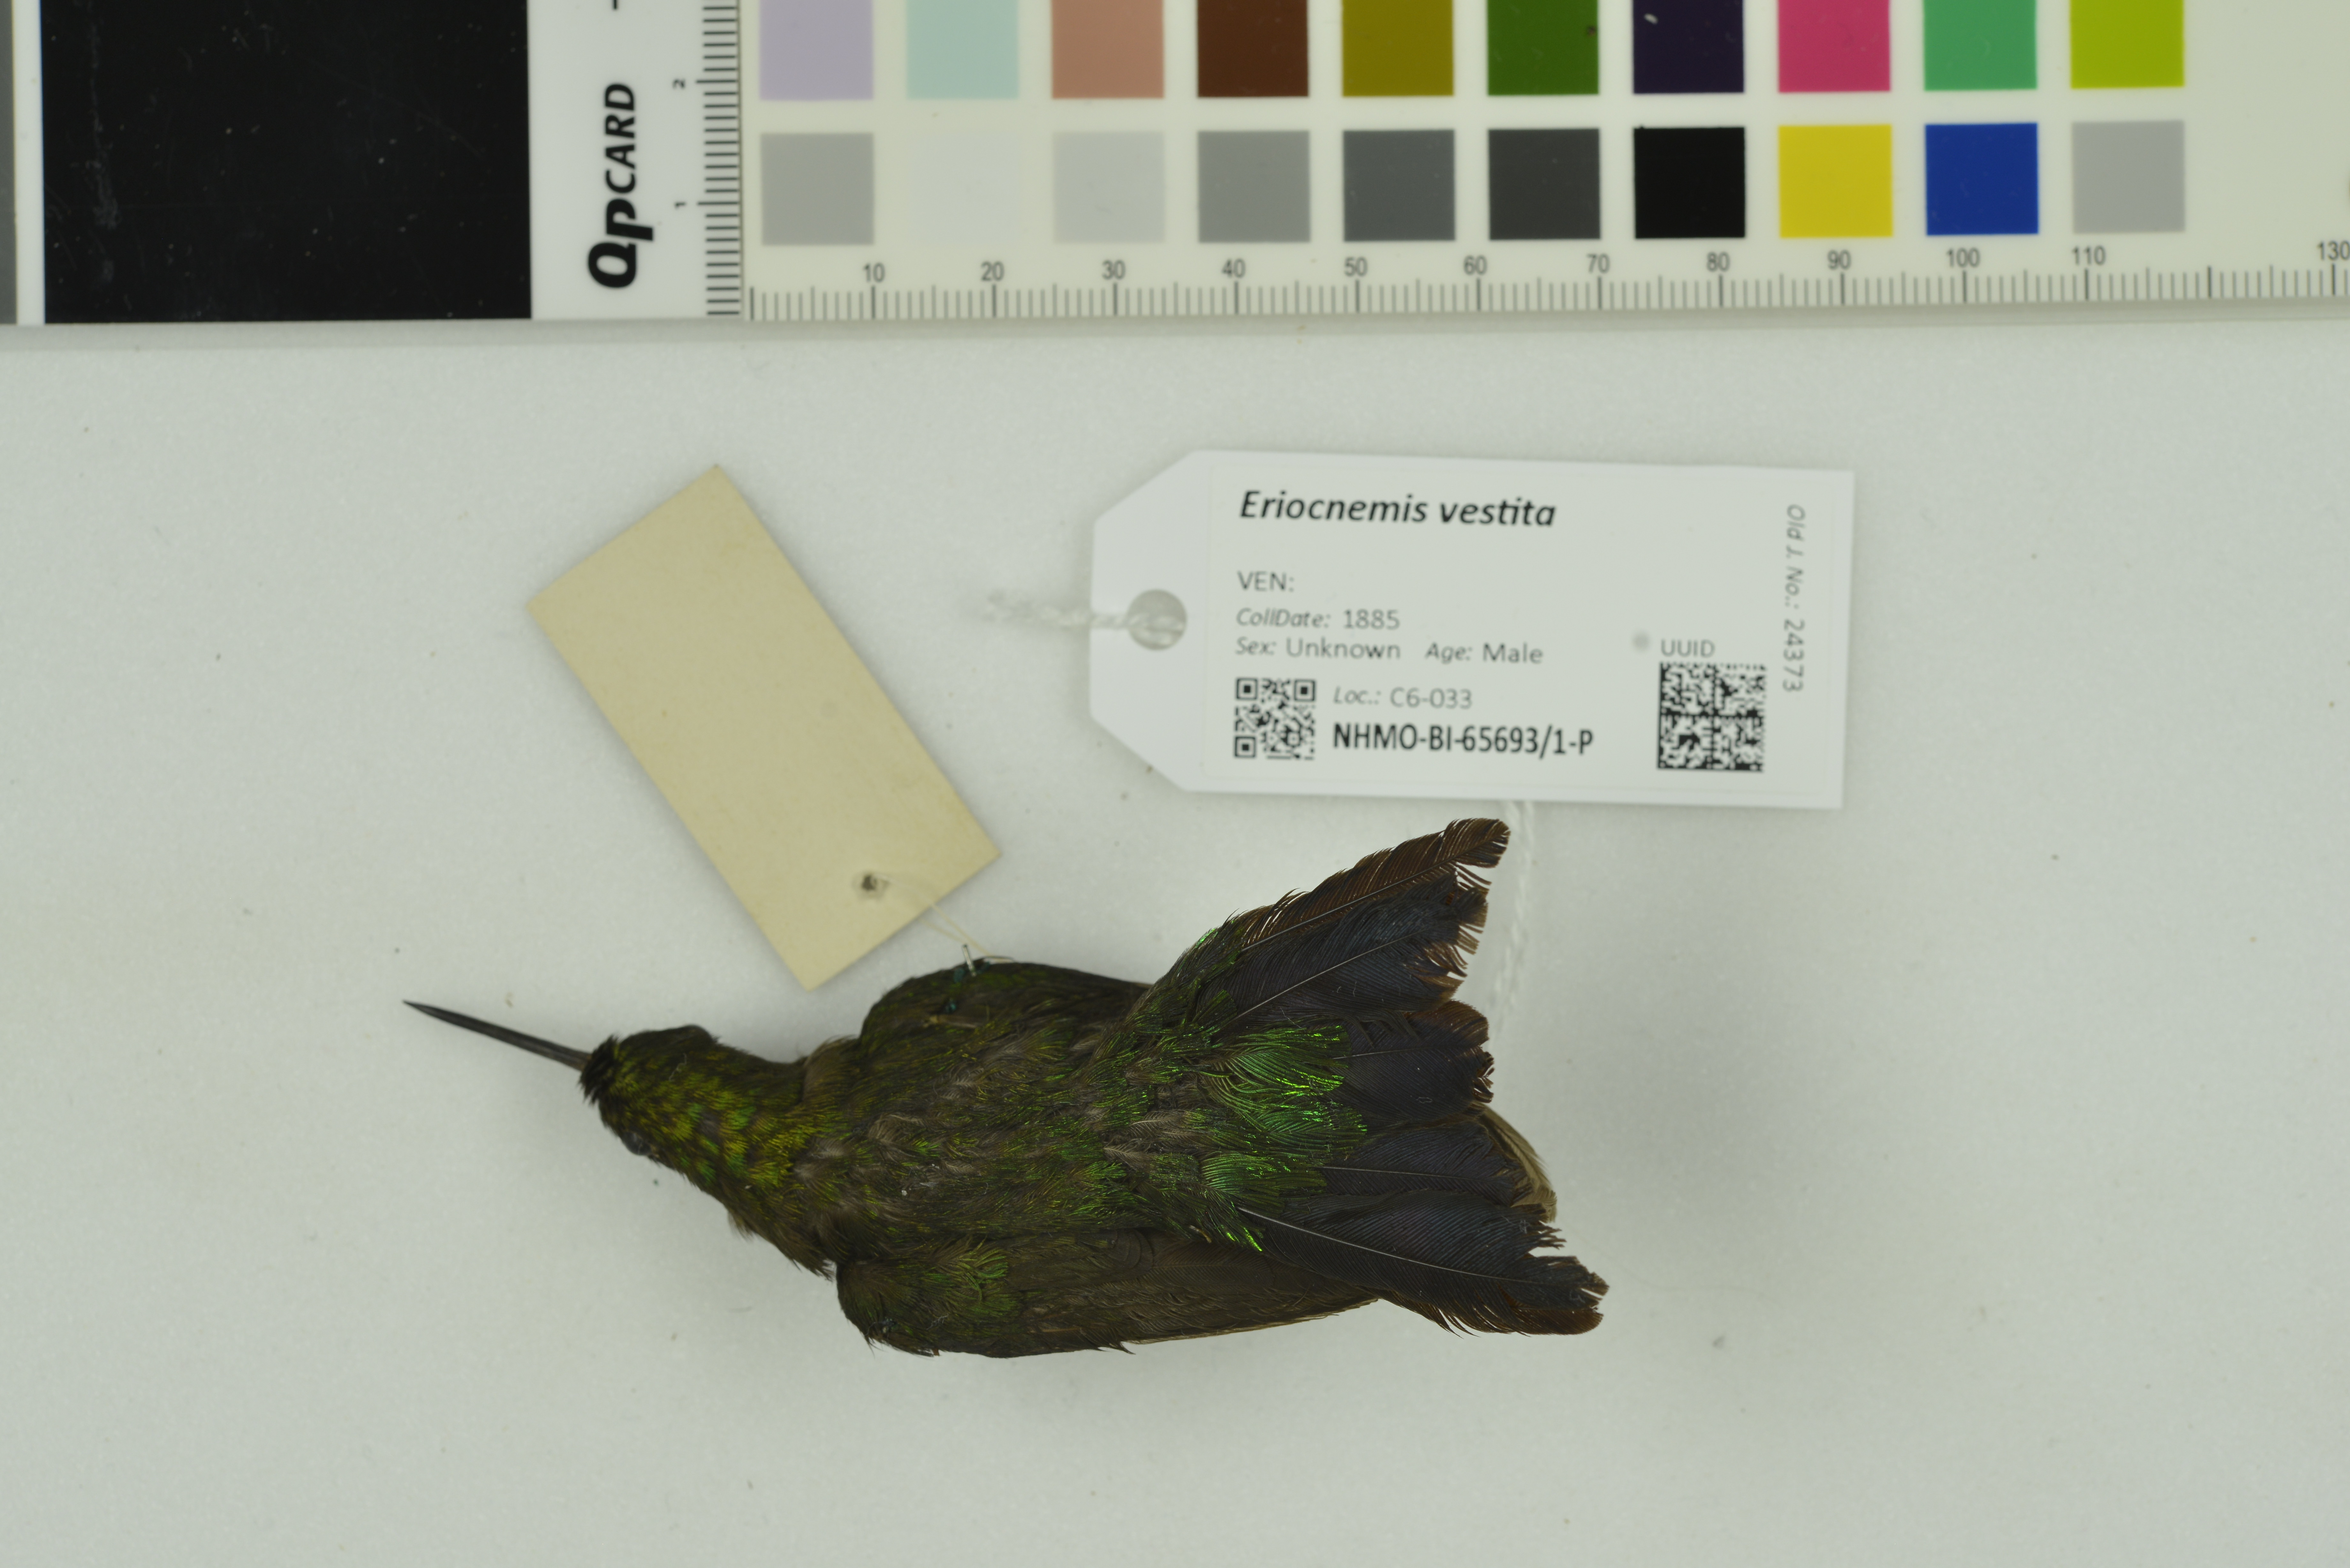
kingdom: Animalia
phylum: Chordata
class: Aves
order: Apodiformes
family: Trochilidae
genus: Eriocnemis
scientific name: Eriocnemis vestita
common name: Glowing puffleg
